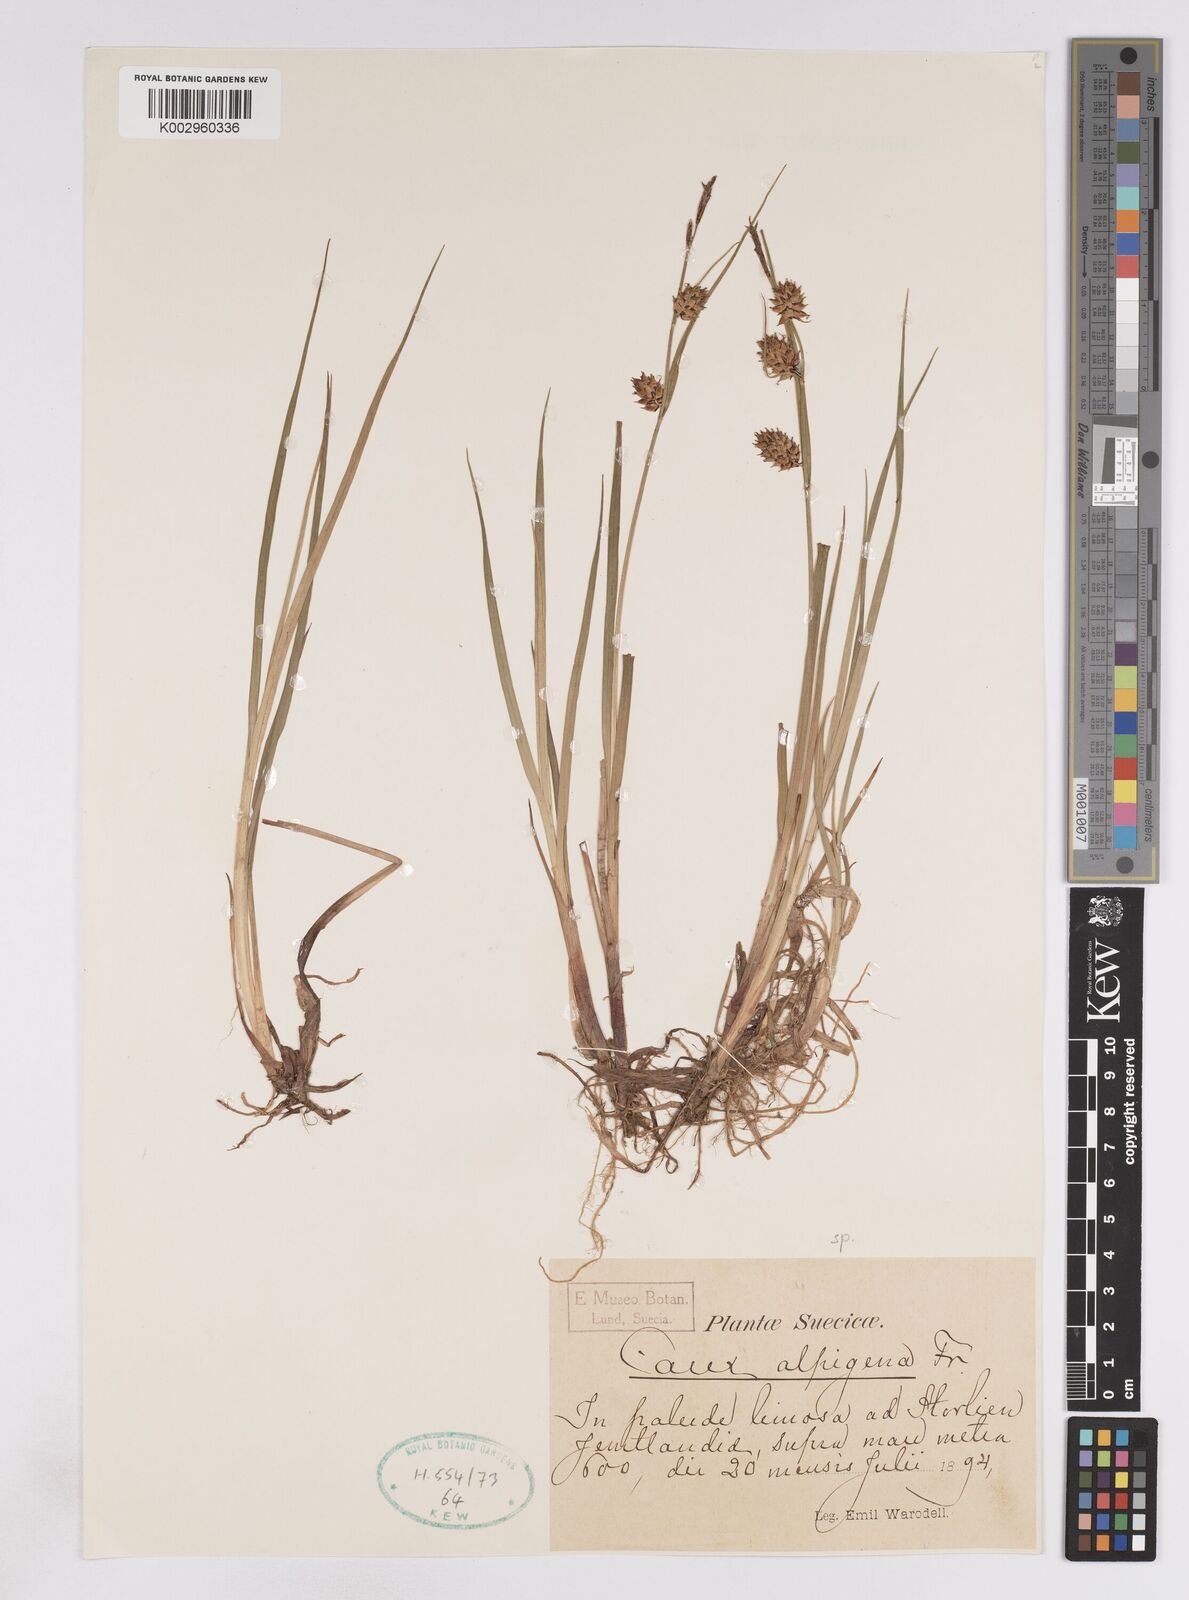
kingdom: Plantae
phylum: Tracheophyta
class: Liliopsida
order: Poales
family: Cyperaceae
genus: Carex
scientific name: Carex vesicaria
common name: Bladder-sedge
